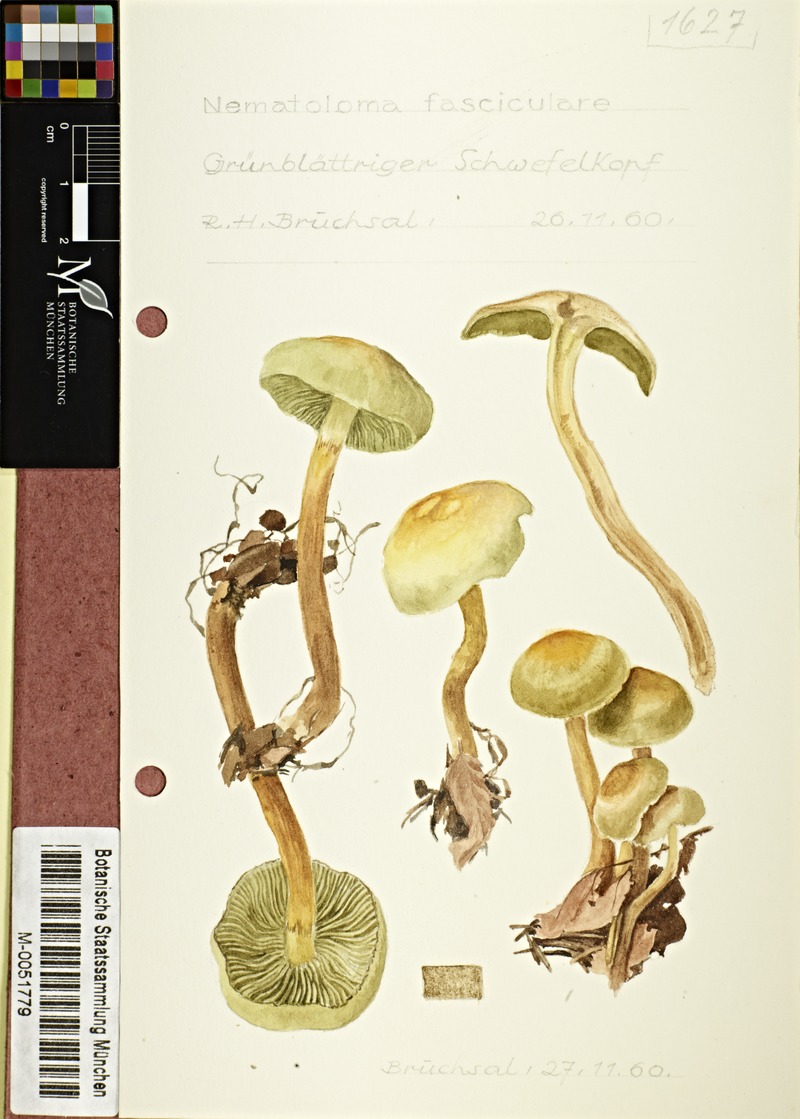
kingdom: Fungi
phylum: Basidiomycota
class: Agaricomycetes
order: Agaricales
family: Strophariaceae
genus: Hypholoma
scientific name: Hypholoma fasciculare
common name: Sulphur tuft
